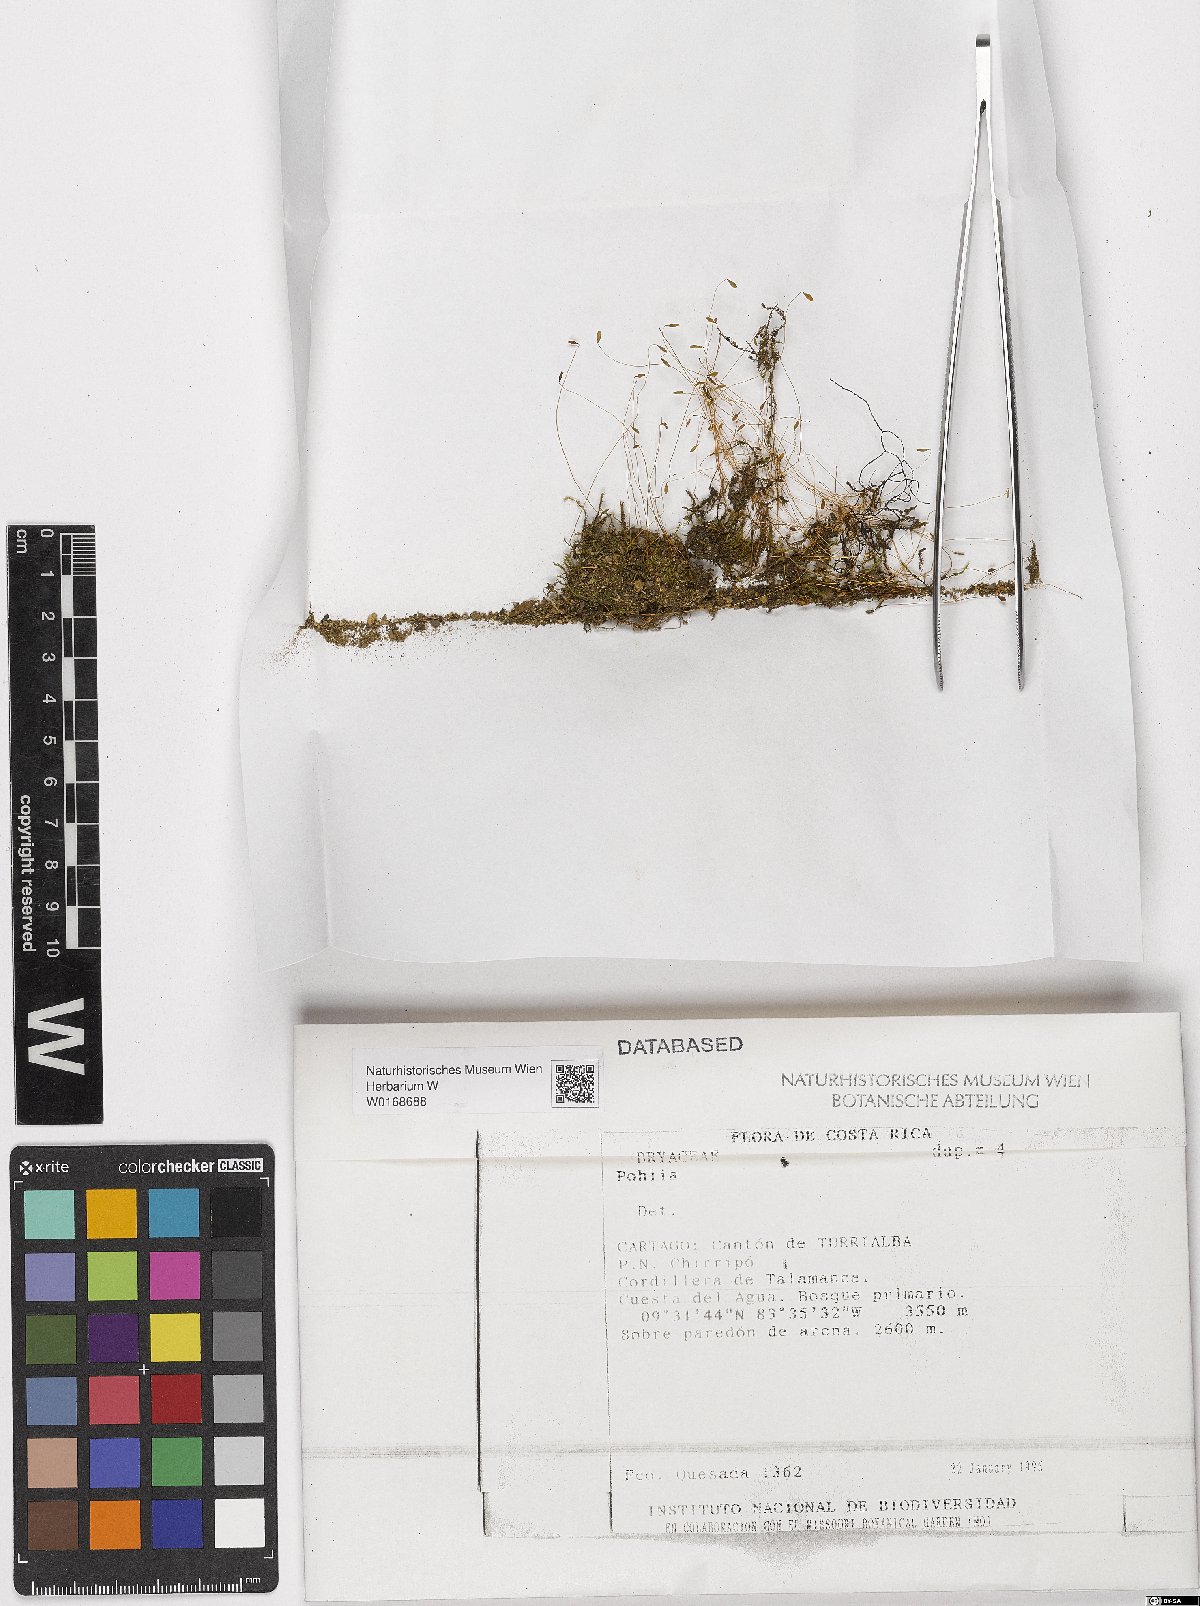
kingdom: Plantae
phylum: Bryophyta
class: Bryopsida
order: Bryales
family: Mniaceae
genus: Pohlia
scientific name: Pohlia
